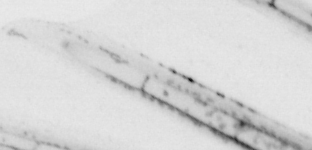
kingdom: Animalia
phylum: Chaetognatha
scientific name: Chaetognatha
